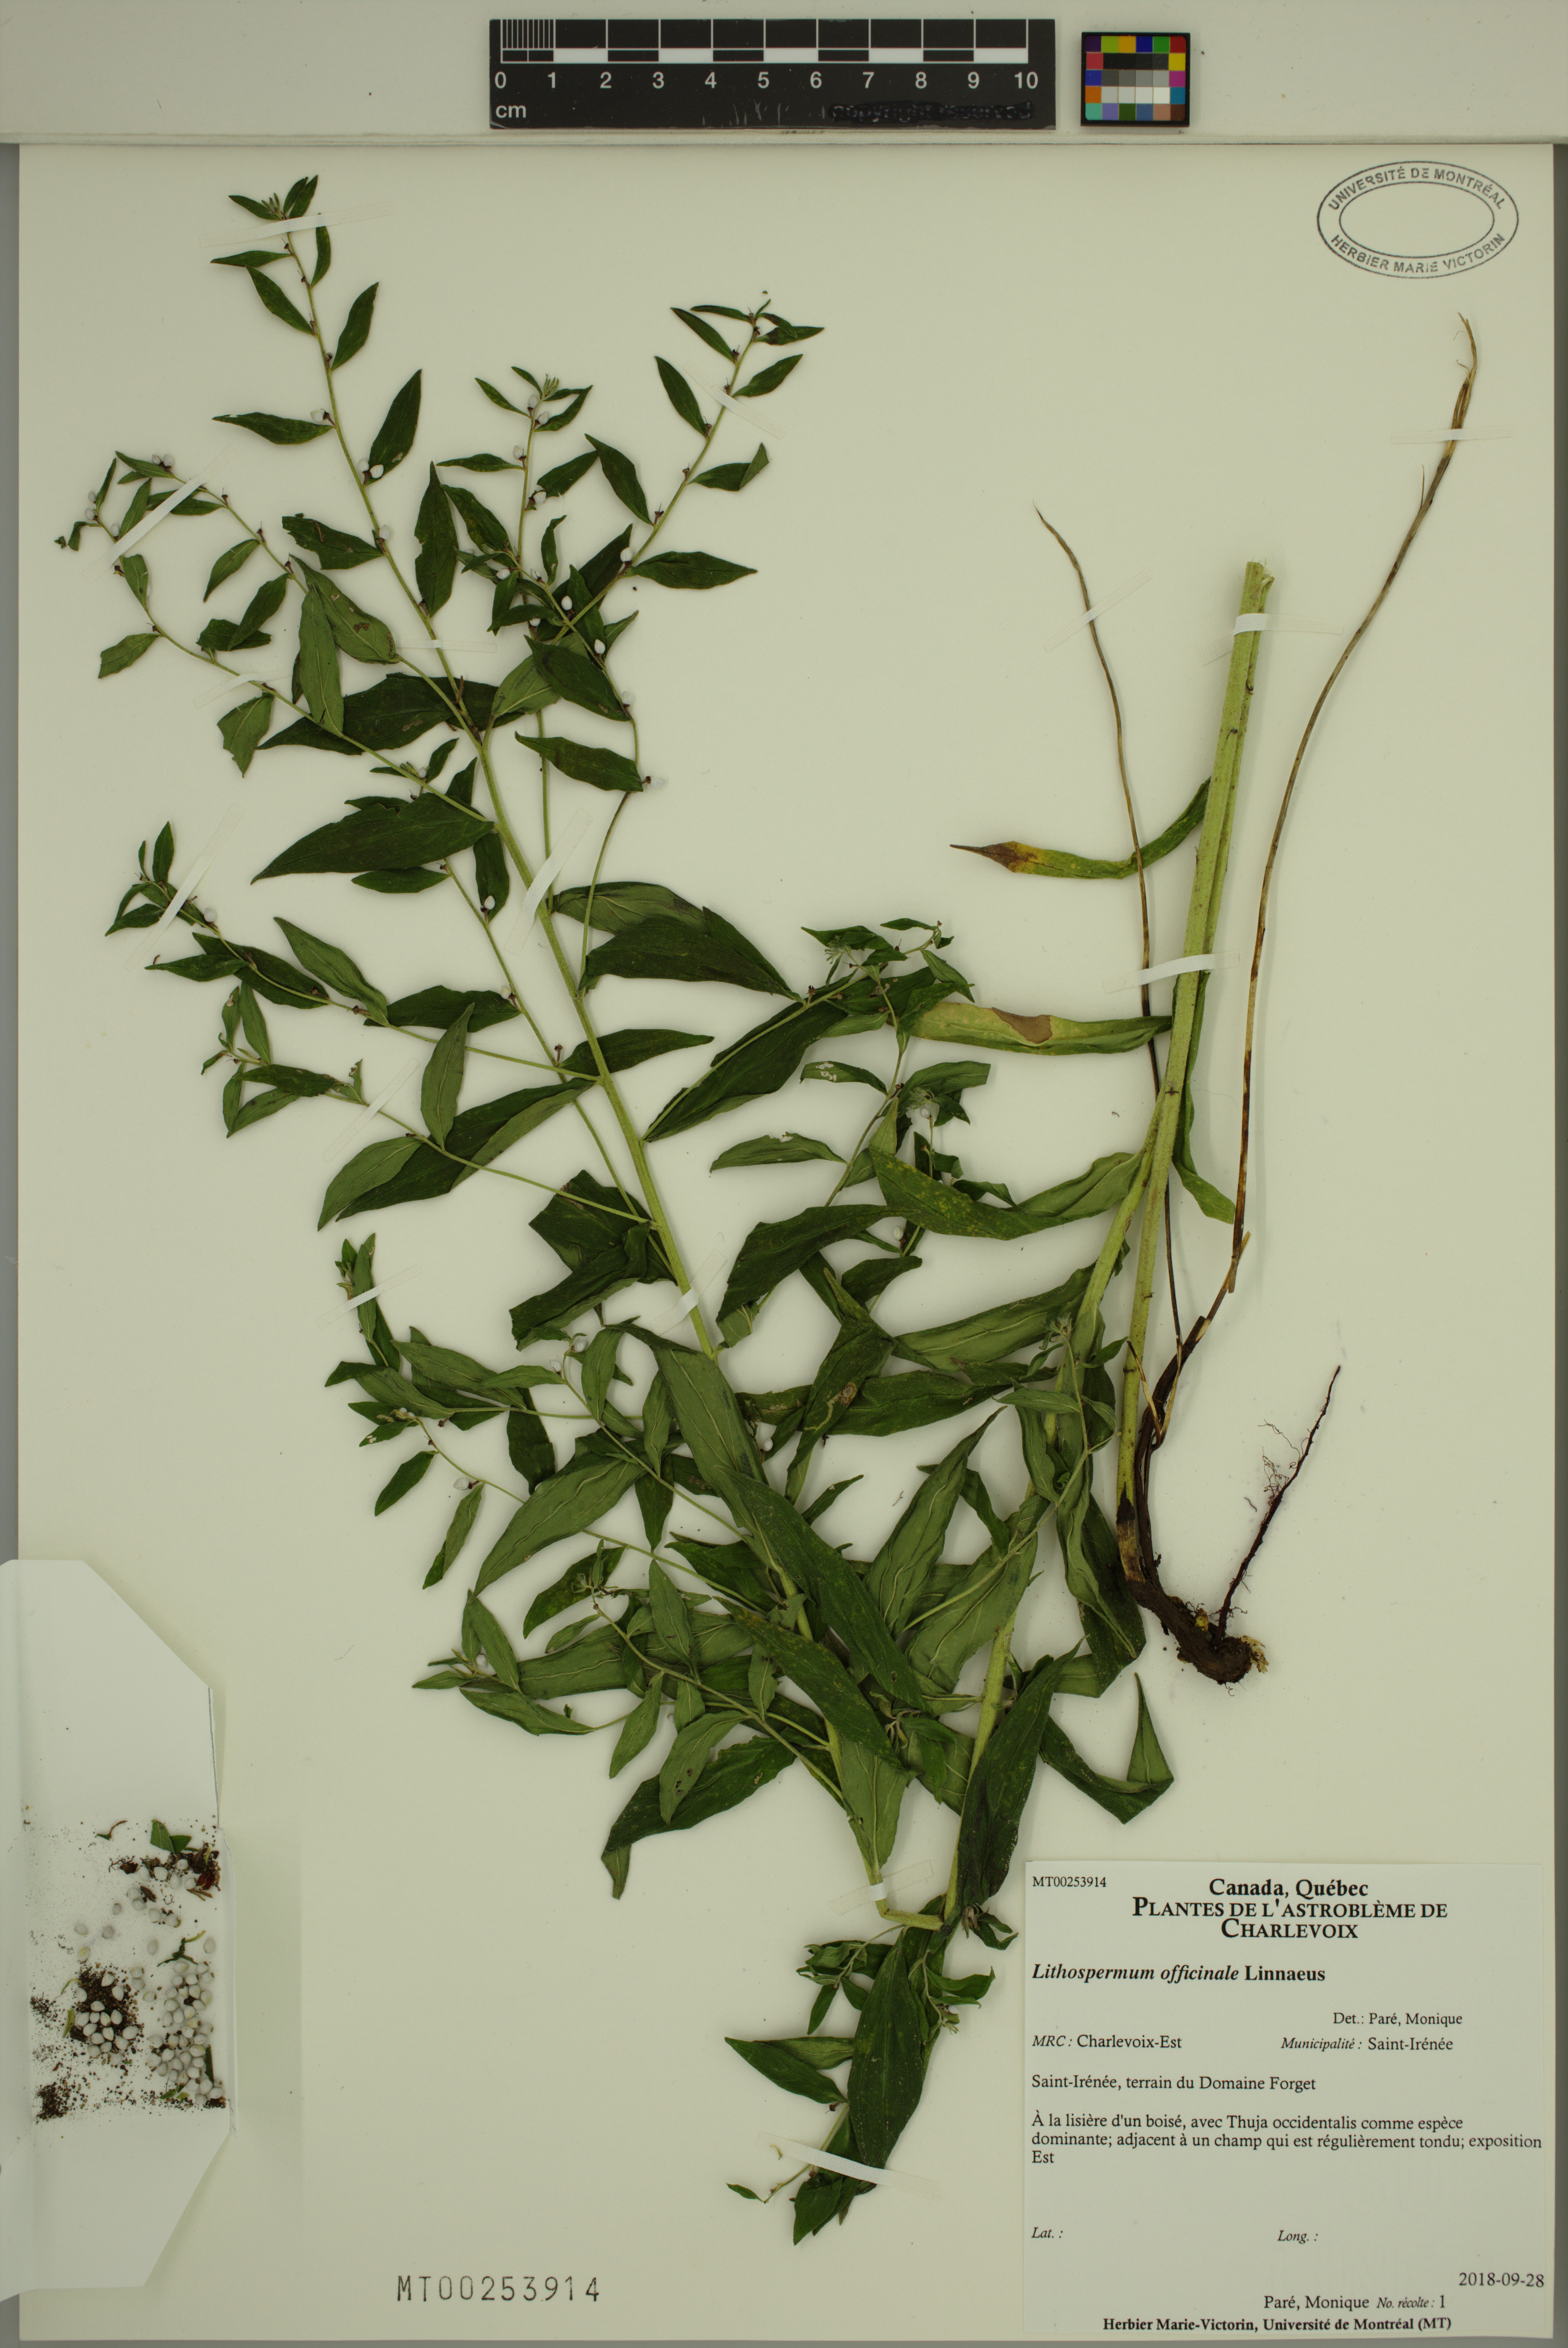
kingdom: Plantae
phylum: Tracheophyta
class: Magnoliopsida
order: Boraginales
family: Boraginaceae
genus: Lithospermum
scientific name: Lithospermum officinale
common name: Common gromwell
